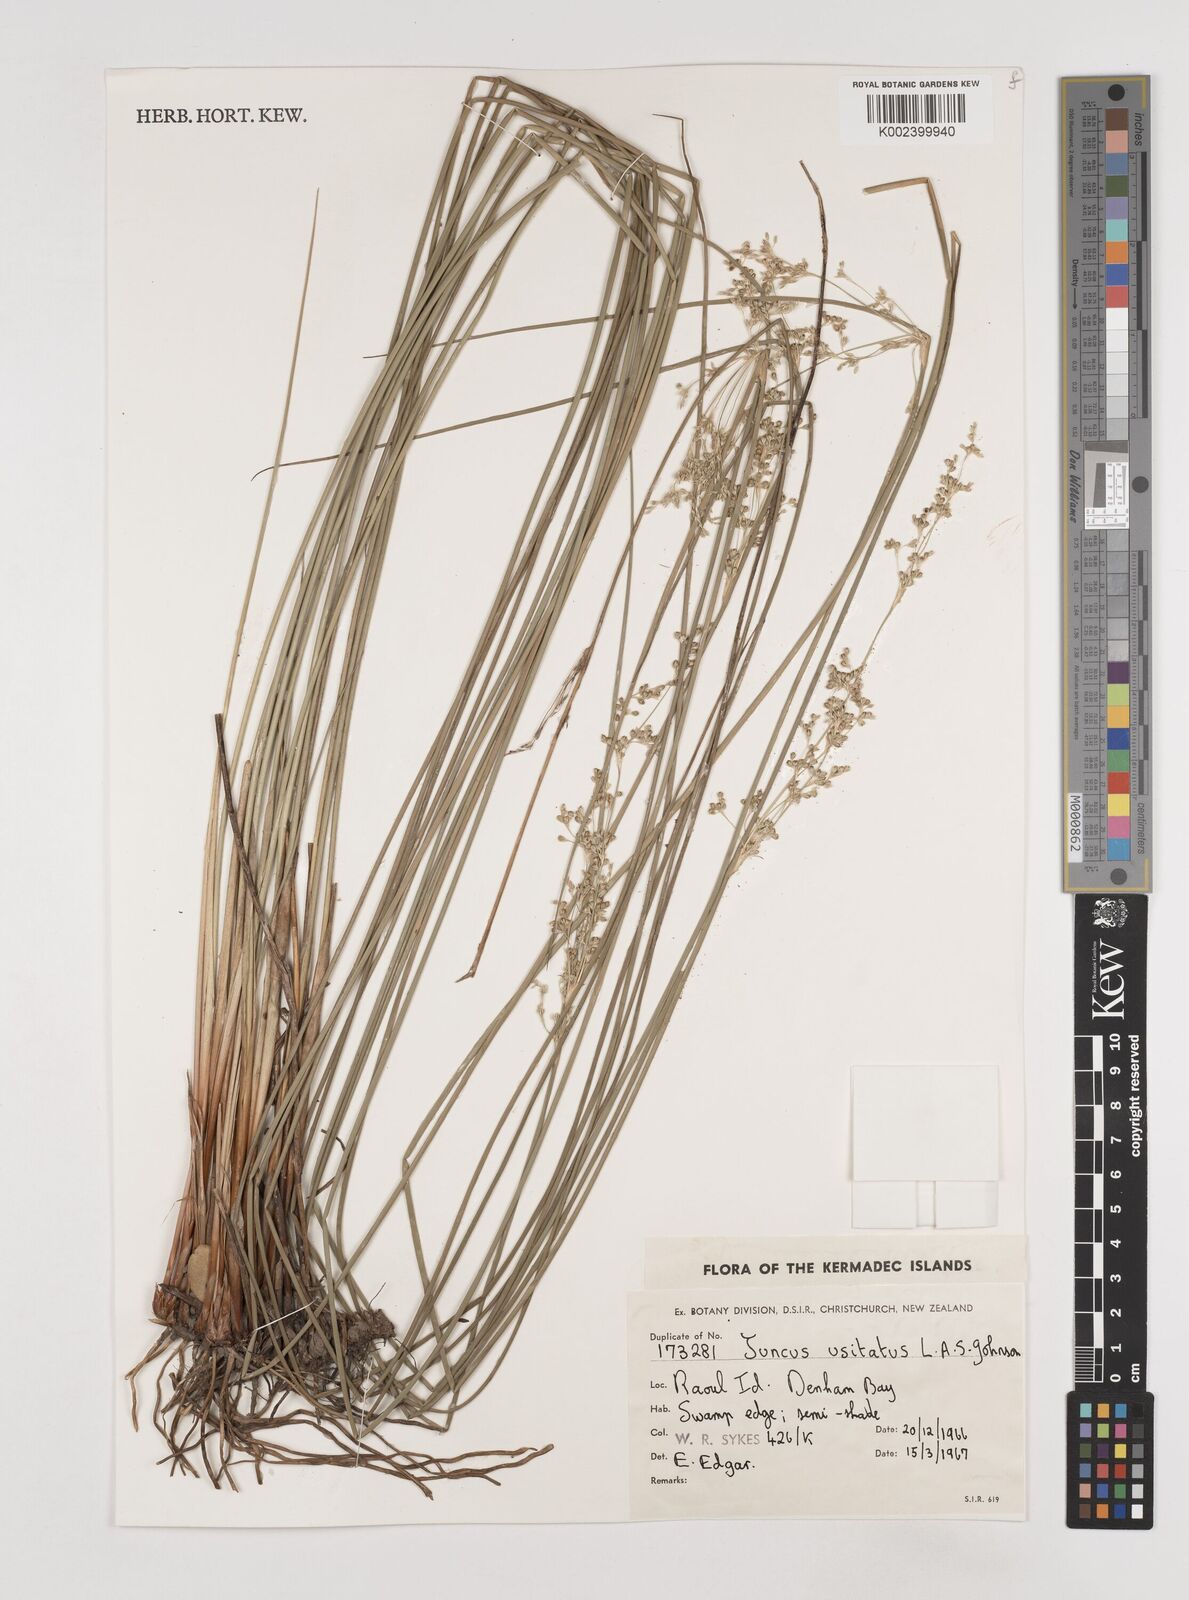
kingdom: Plantae
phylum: Tracheophyta
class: Liliopsida
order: Poales
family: Juncaceae
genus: Juncus
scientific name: Juncus usitatus
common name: Rush
